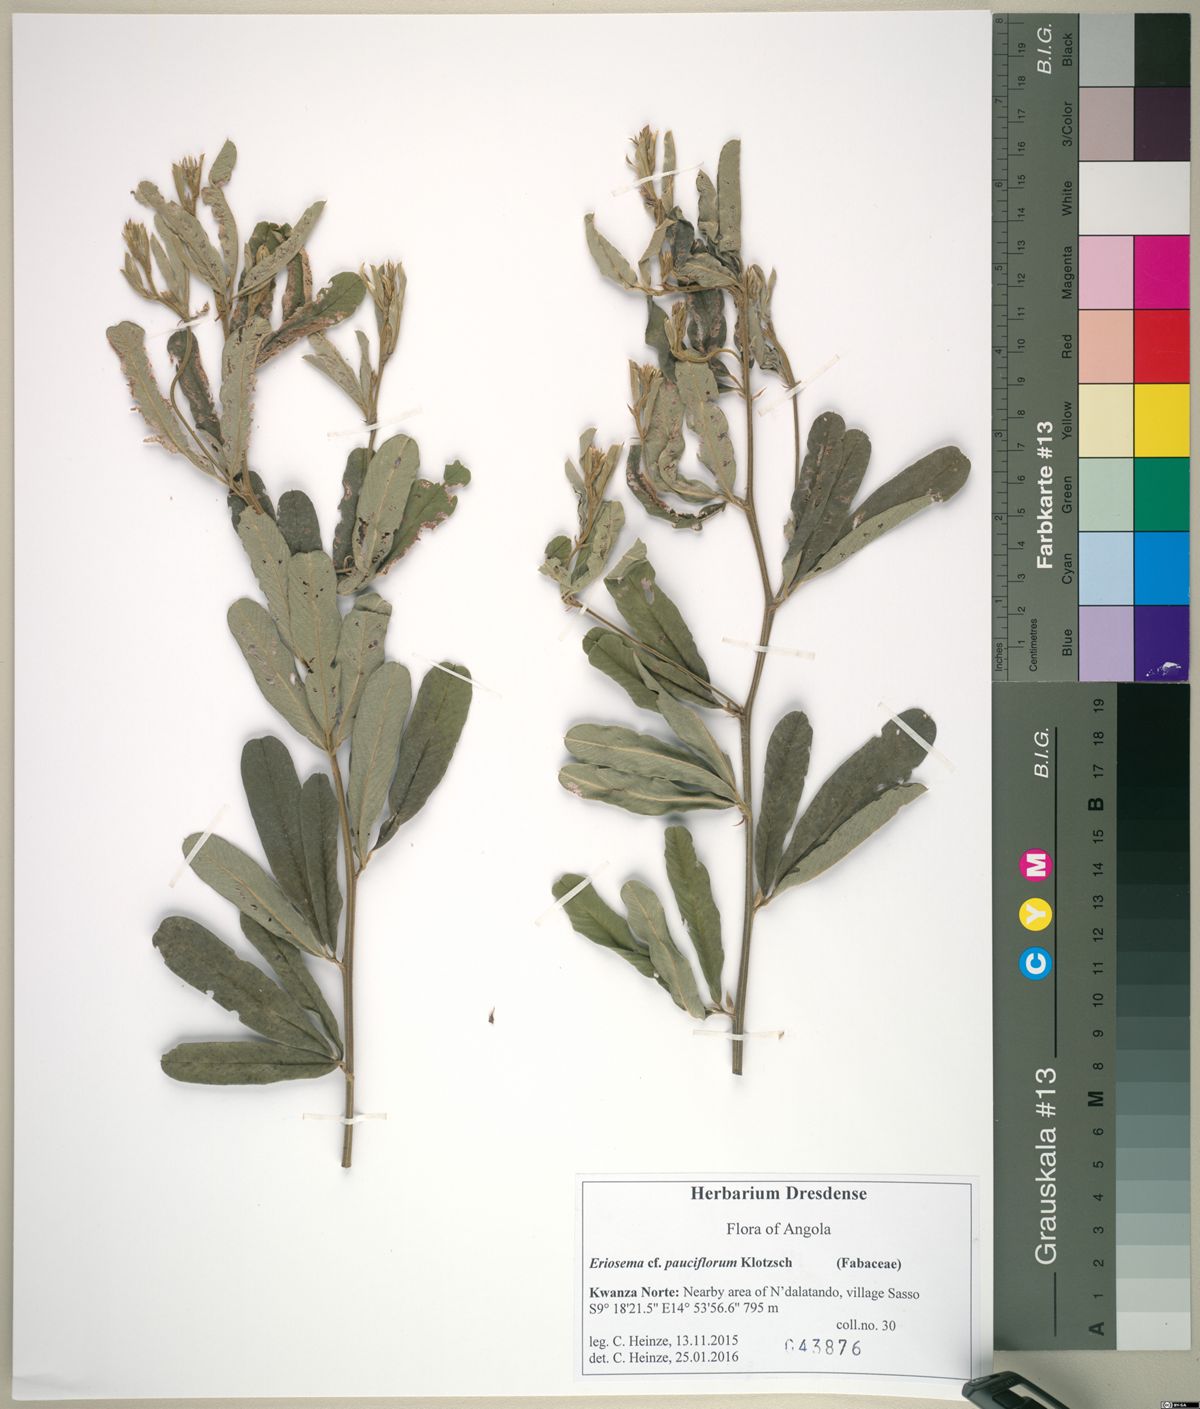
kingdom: Plantae
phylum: Tracheophyta
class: Magnoliopsida
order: Fabales
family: Fabaceae
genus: Eriosema
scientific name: Eriosema pauciflorum
